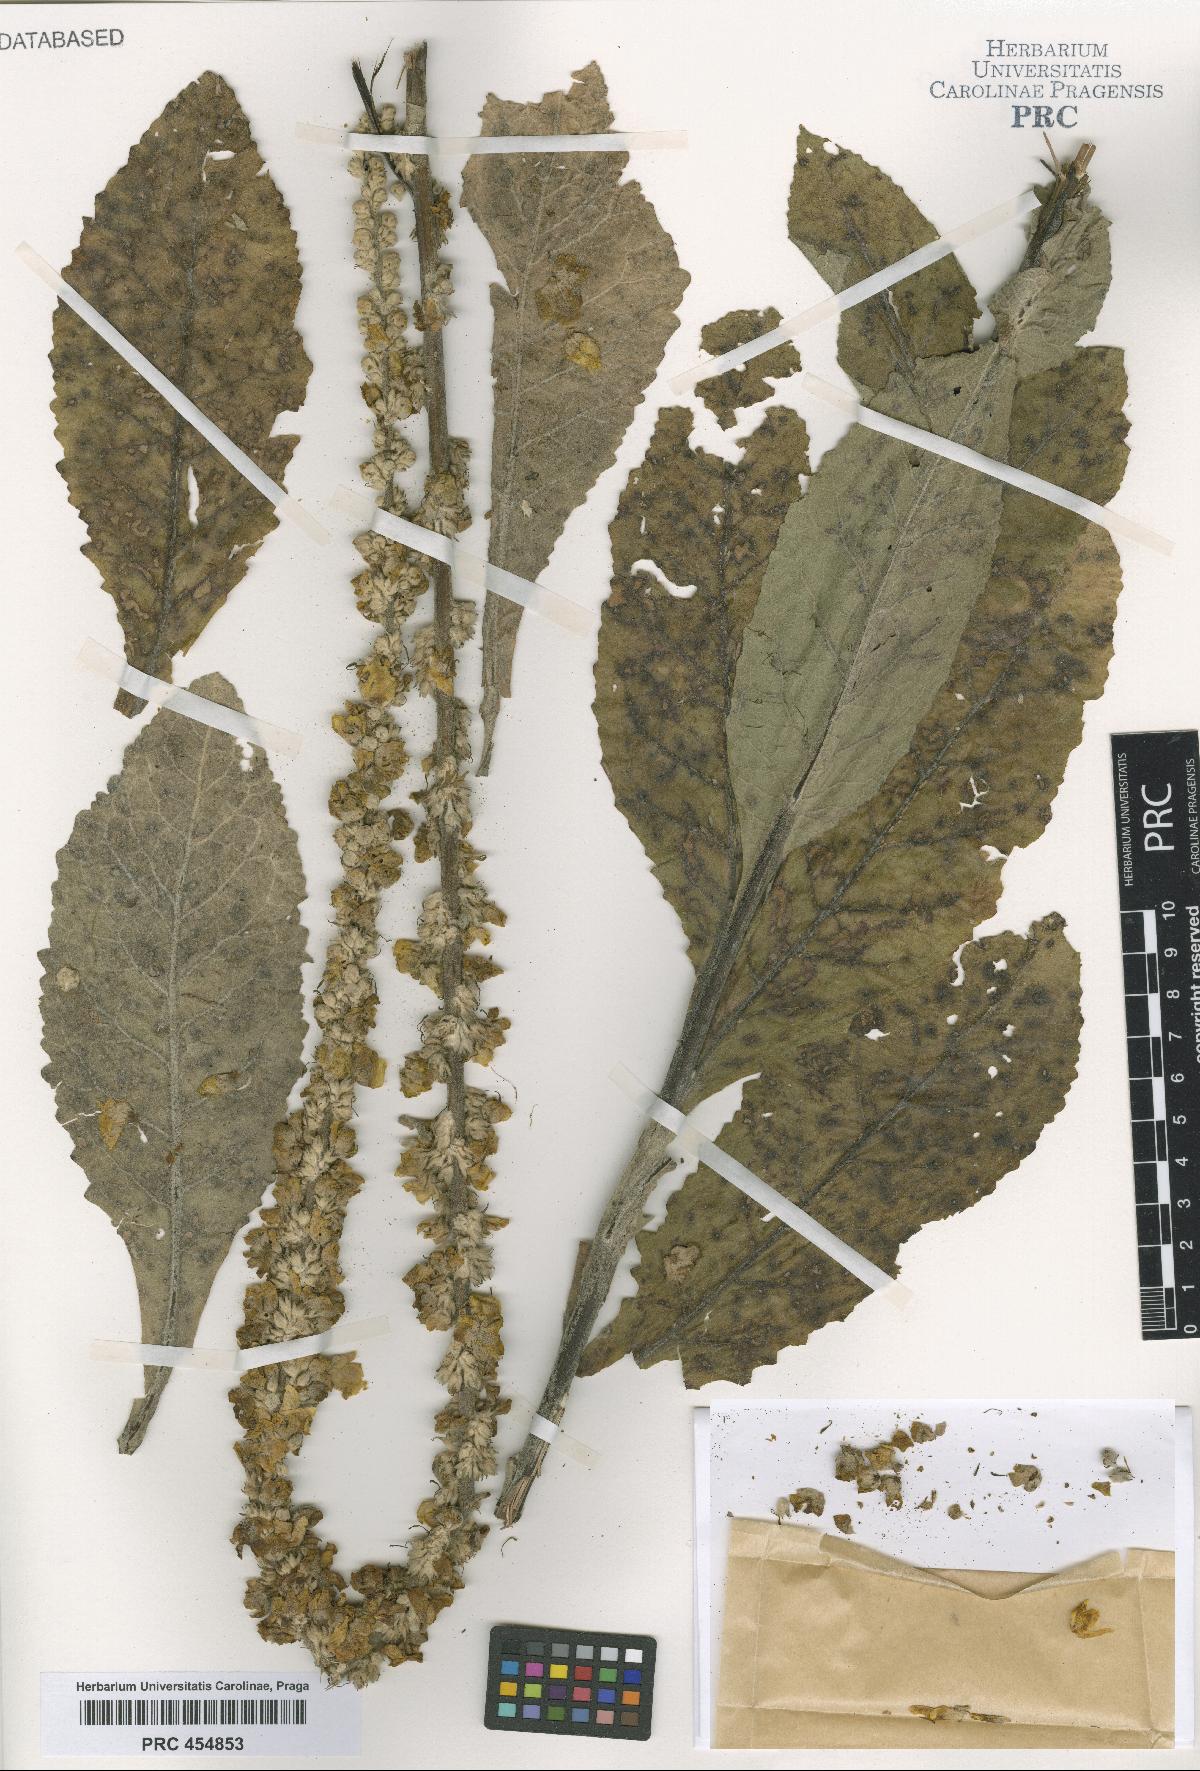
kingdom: Plantae
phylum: Tracheophyta
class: Magnoliopsida
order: Lamiales
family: Scrophulariaceae
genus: Verbascum
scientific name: Verbascum congestum
